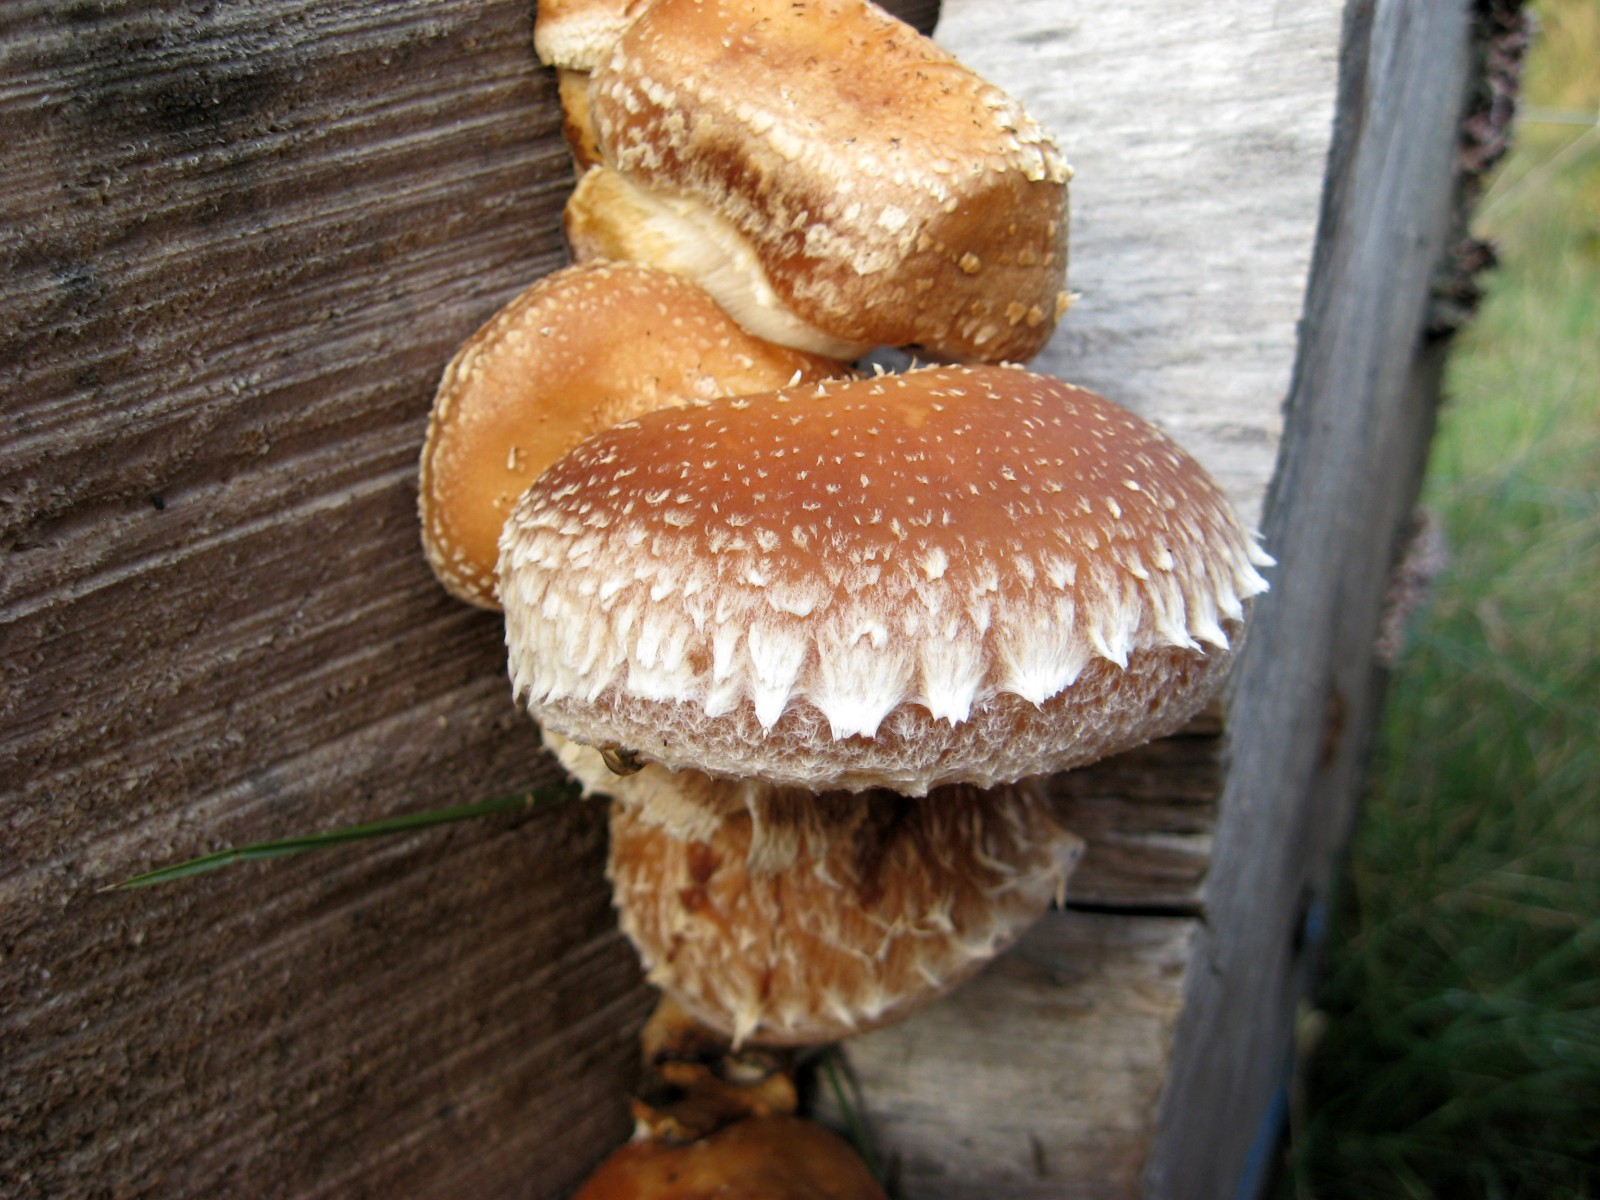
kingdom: Fungi
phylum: Basidiomycota
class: Agaricomycetes
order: Agaricales
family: Strophariaceae
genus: Pholiota
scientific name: Pholiota populnea
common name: poppel-kæmpeskælhat
